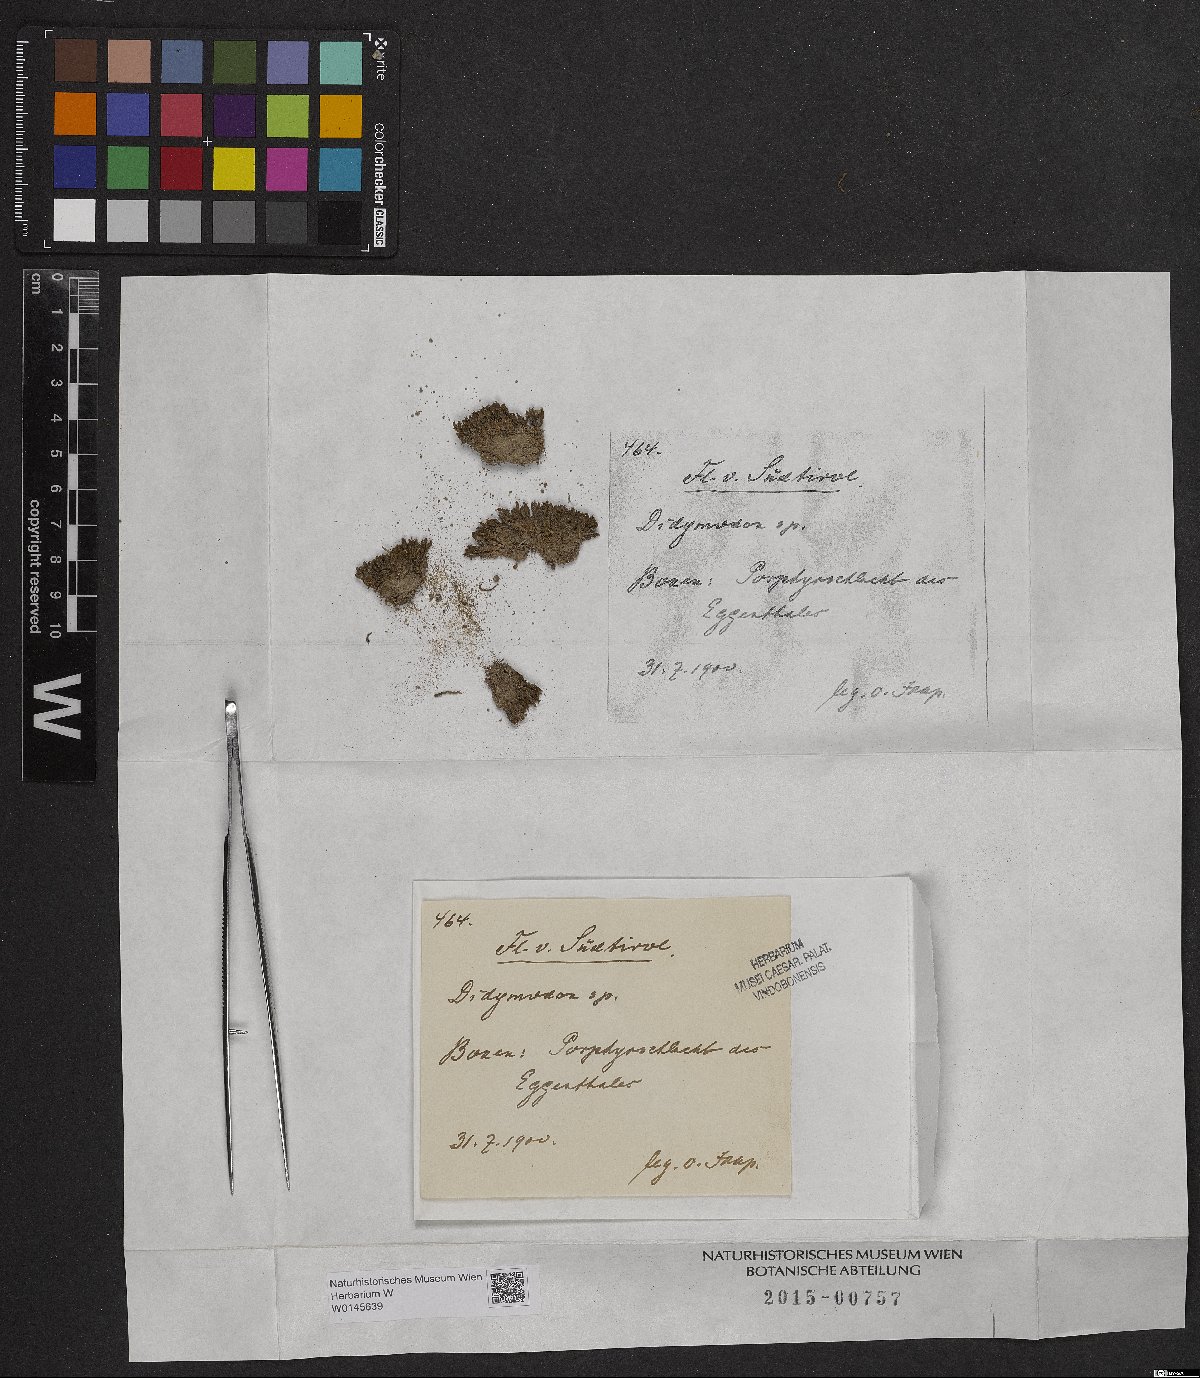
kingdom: Plantae
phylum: Bryophyta
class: Bryopsida
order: Pottiales
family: Pottiaceae
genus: Didymodon
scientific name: Didymodon
